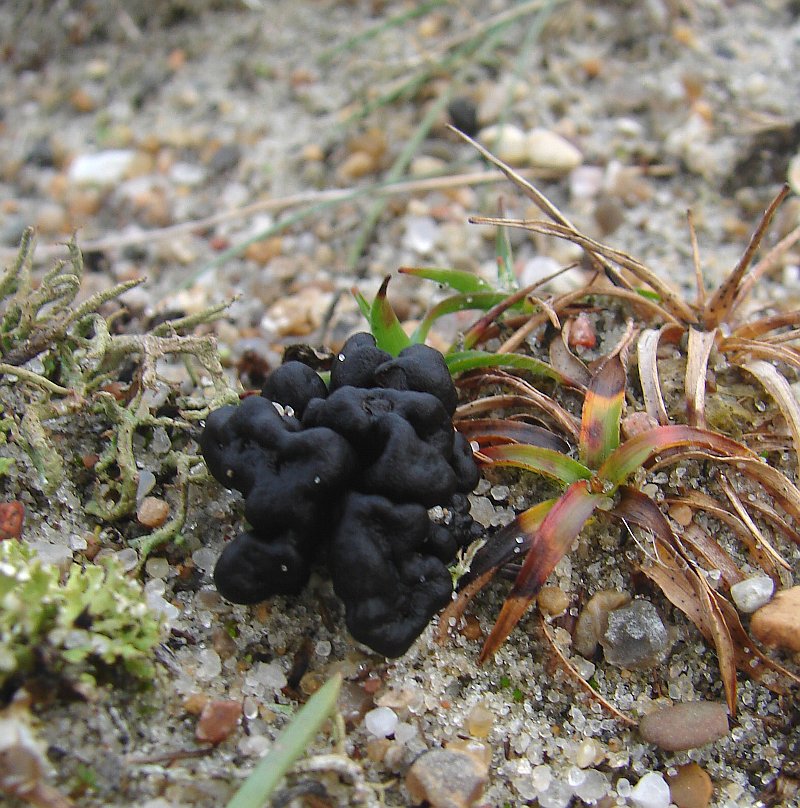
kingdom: Fungi
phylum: Ascomycota
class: Geoglossomycetes
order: Geoglossales
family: Geoglossaceae
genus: Sabuloglossum
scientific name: Sabuloglossum arenarium
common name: klit-jordtunge
